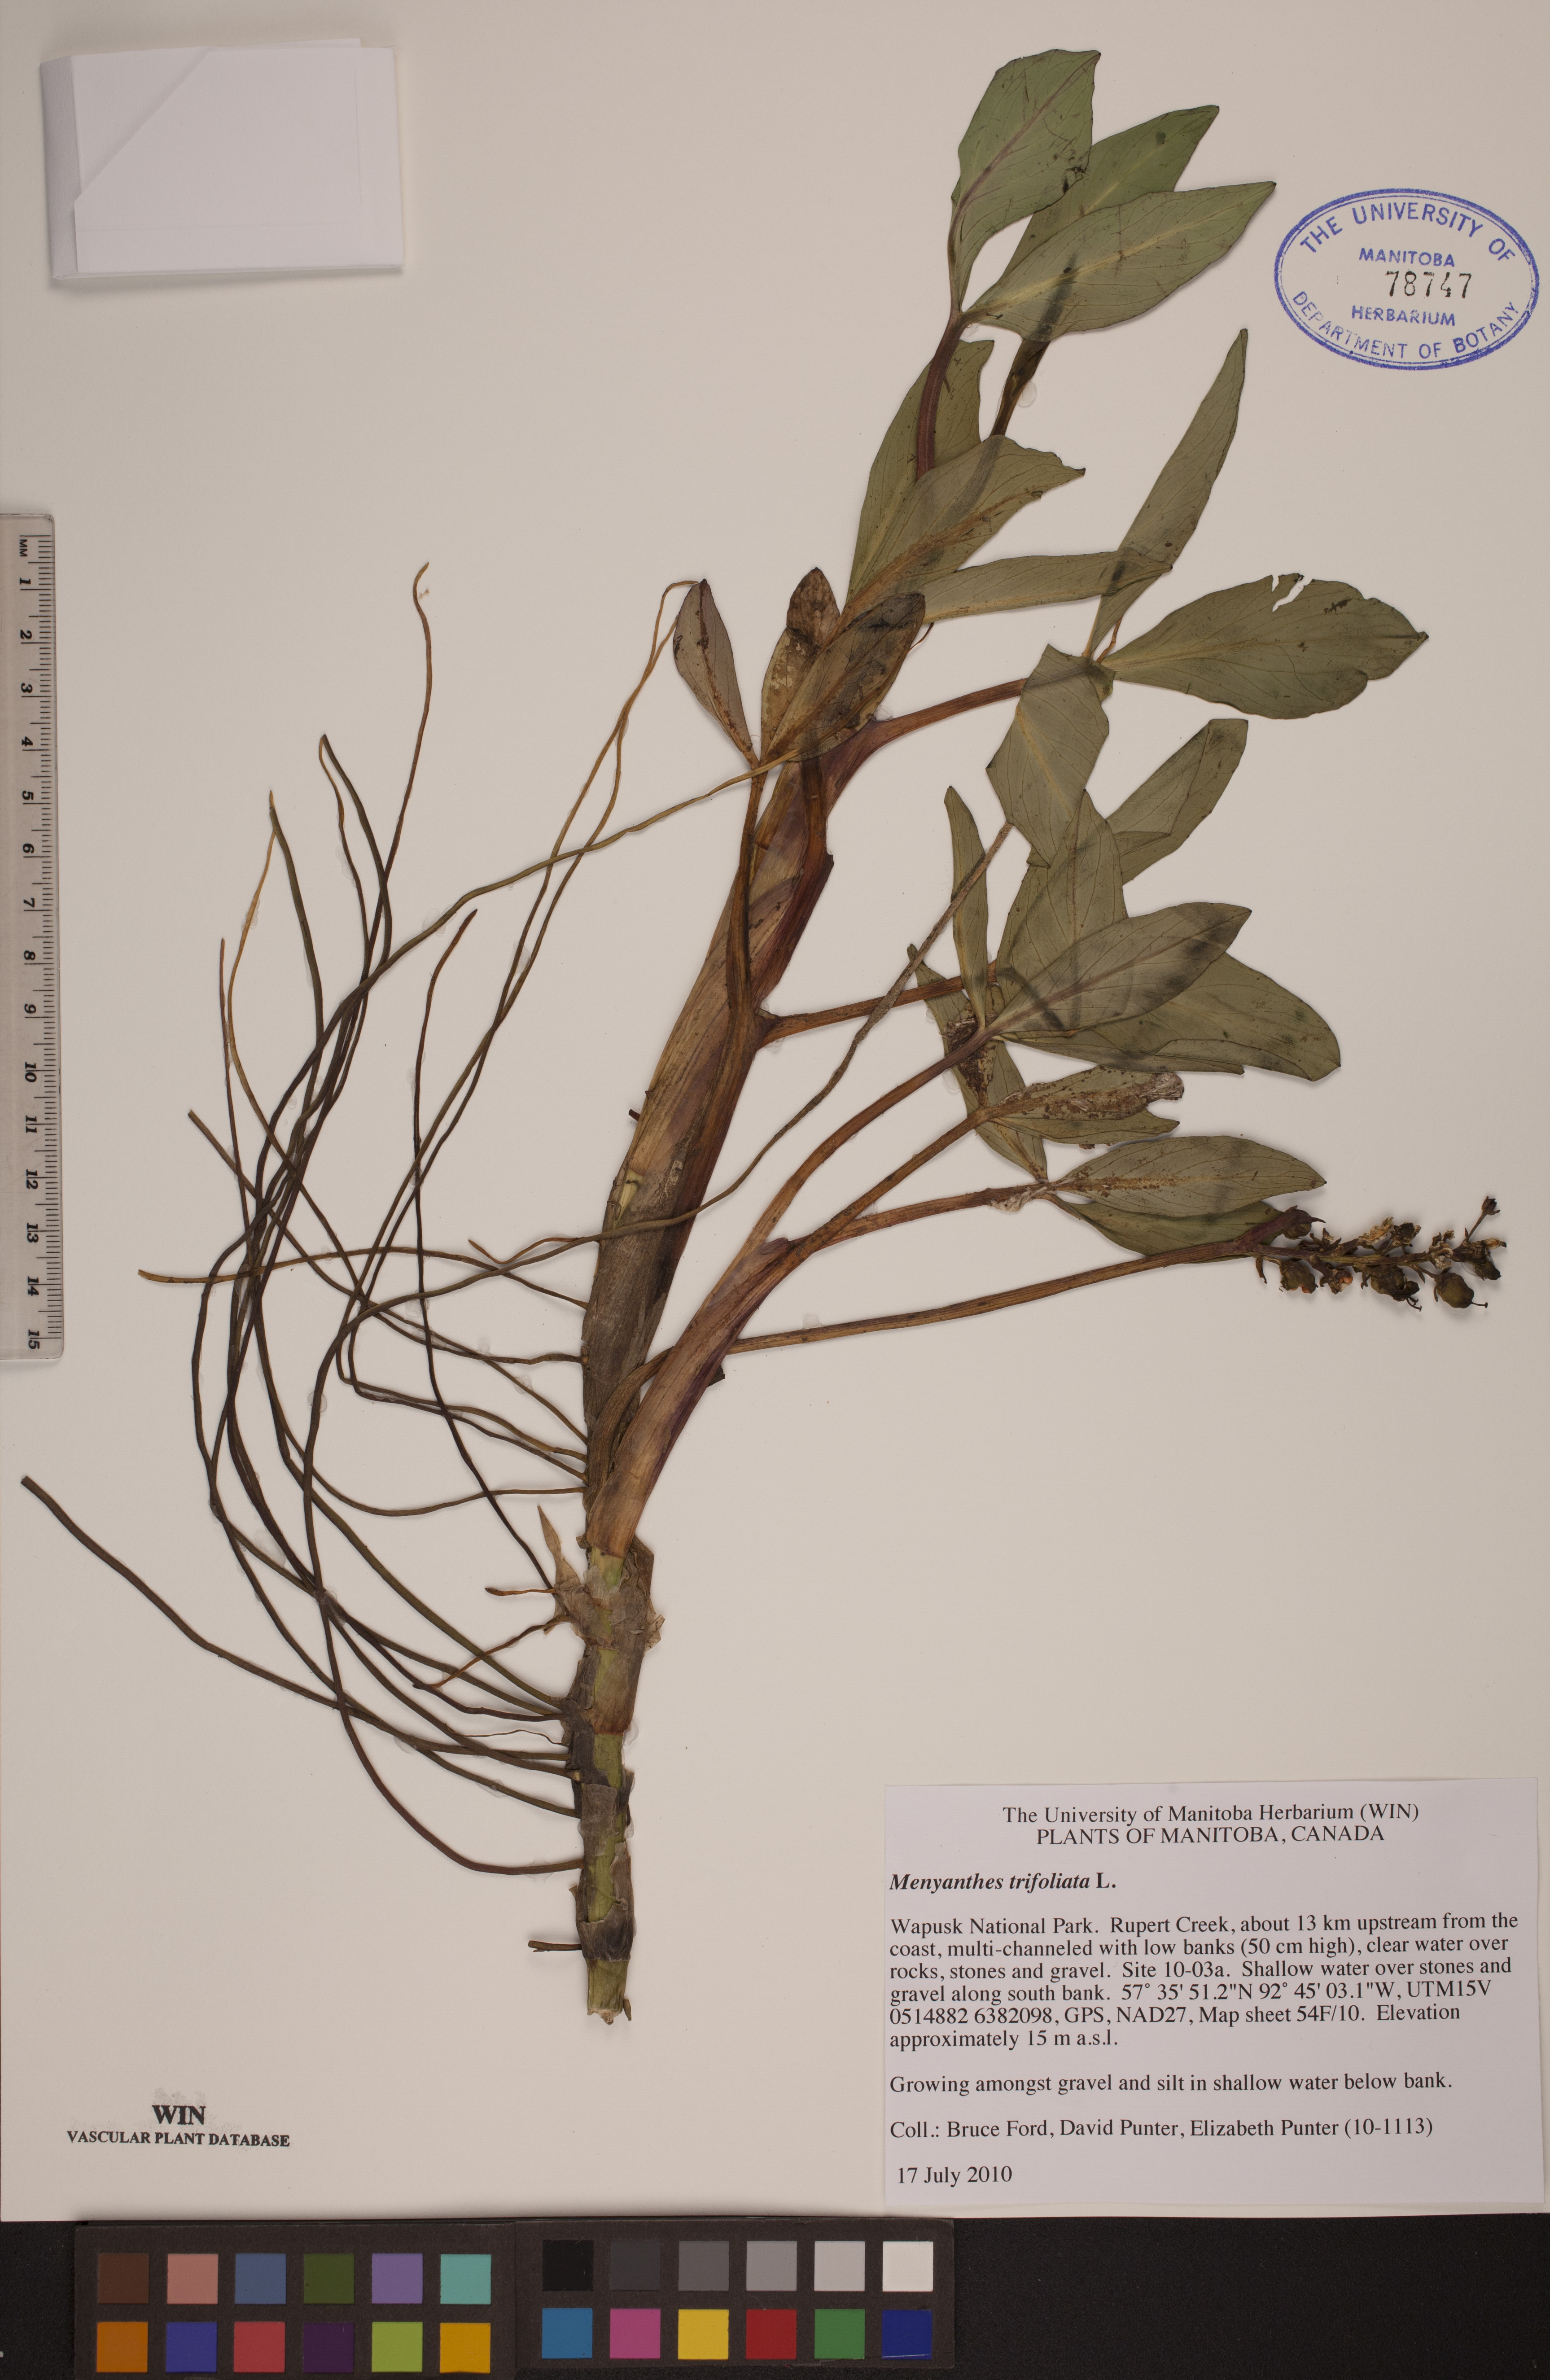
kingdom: Plantae
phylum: Tracheophyta
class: Magnoliopsida
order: Asterales
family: Menyanthaceae
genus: Menyanthes
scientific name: Menyanthes trifoliata
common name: Bogbean
